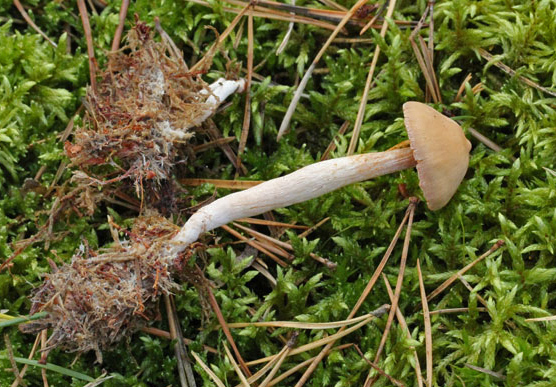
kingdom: Fungi
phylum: Basidiomycota
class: Agaricomycetes
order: Agaricales
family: Cortinariaceae
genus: Cortinarius
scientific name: Cortinarius
